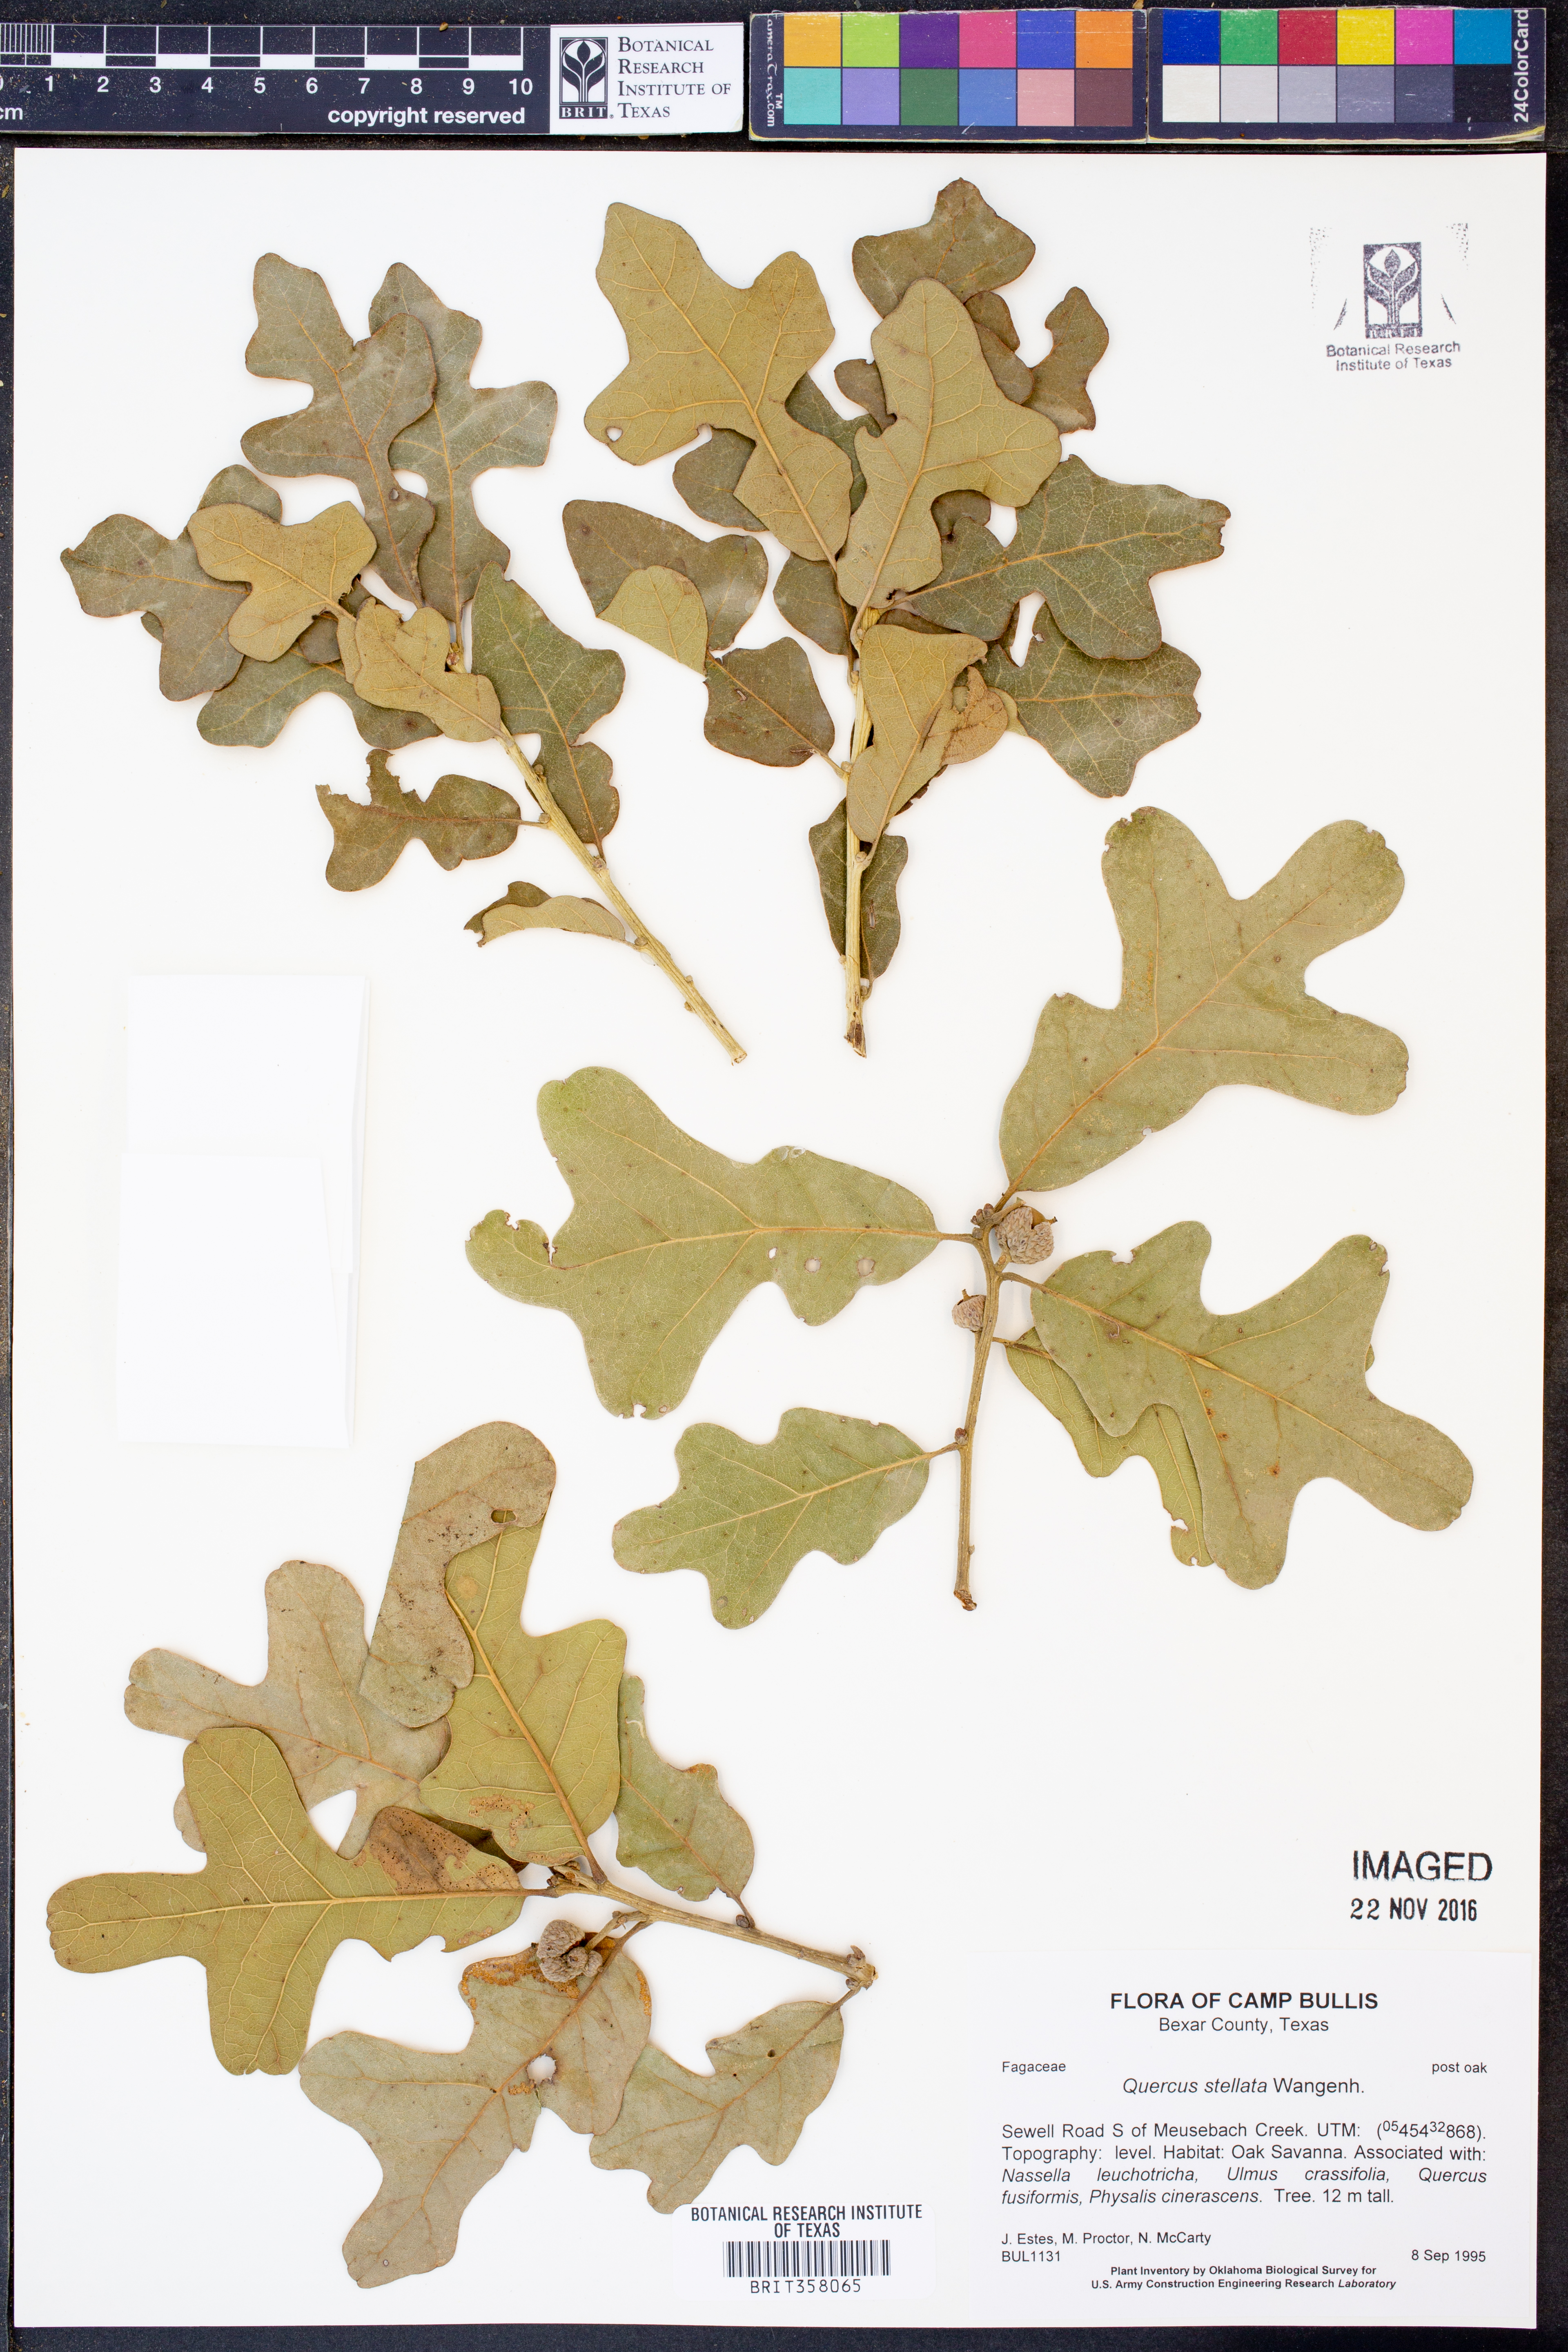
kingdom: Plantae
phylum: Tracheophyta
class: Magnoliopsida
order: Fagales
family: Fagaceae
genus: Quercus
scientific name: Quercus stellata
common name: Post oak
